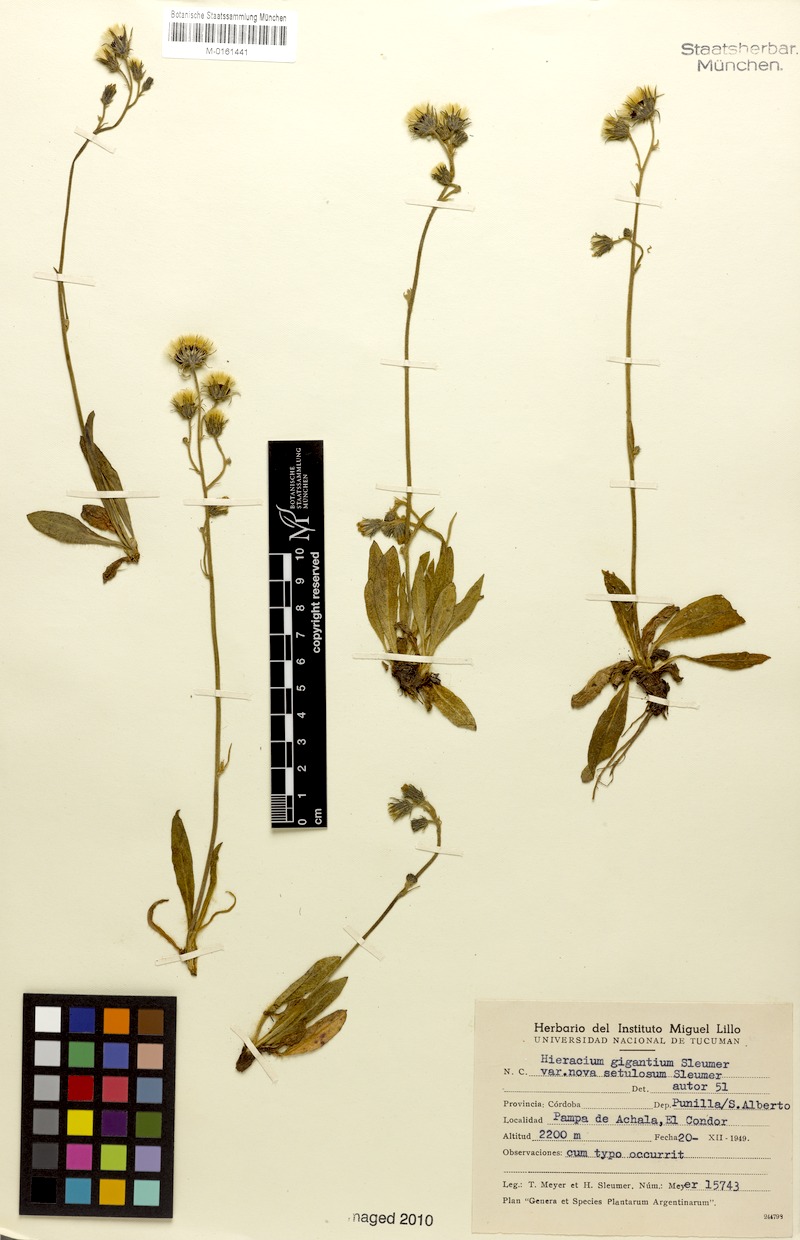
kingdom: Plantae
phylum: Tracheophyta
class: Magnoliopsida
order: Asterales
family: Asteraceae
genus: Hieracium
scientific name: Hieracium gigantium
